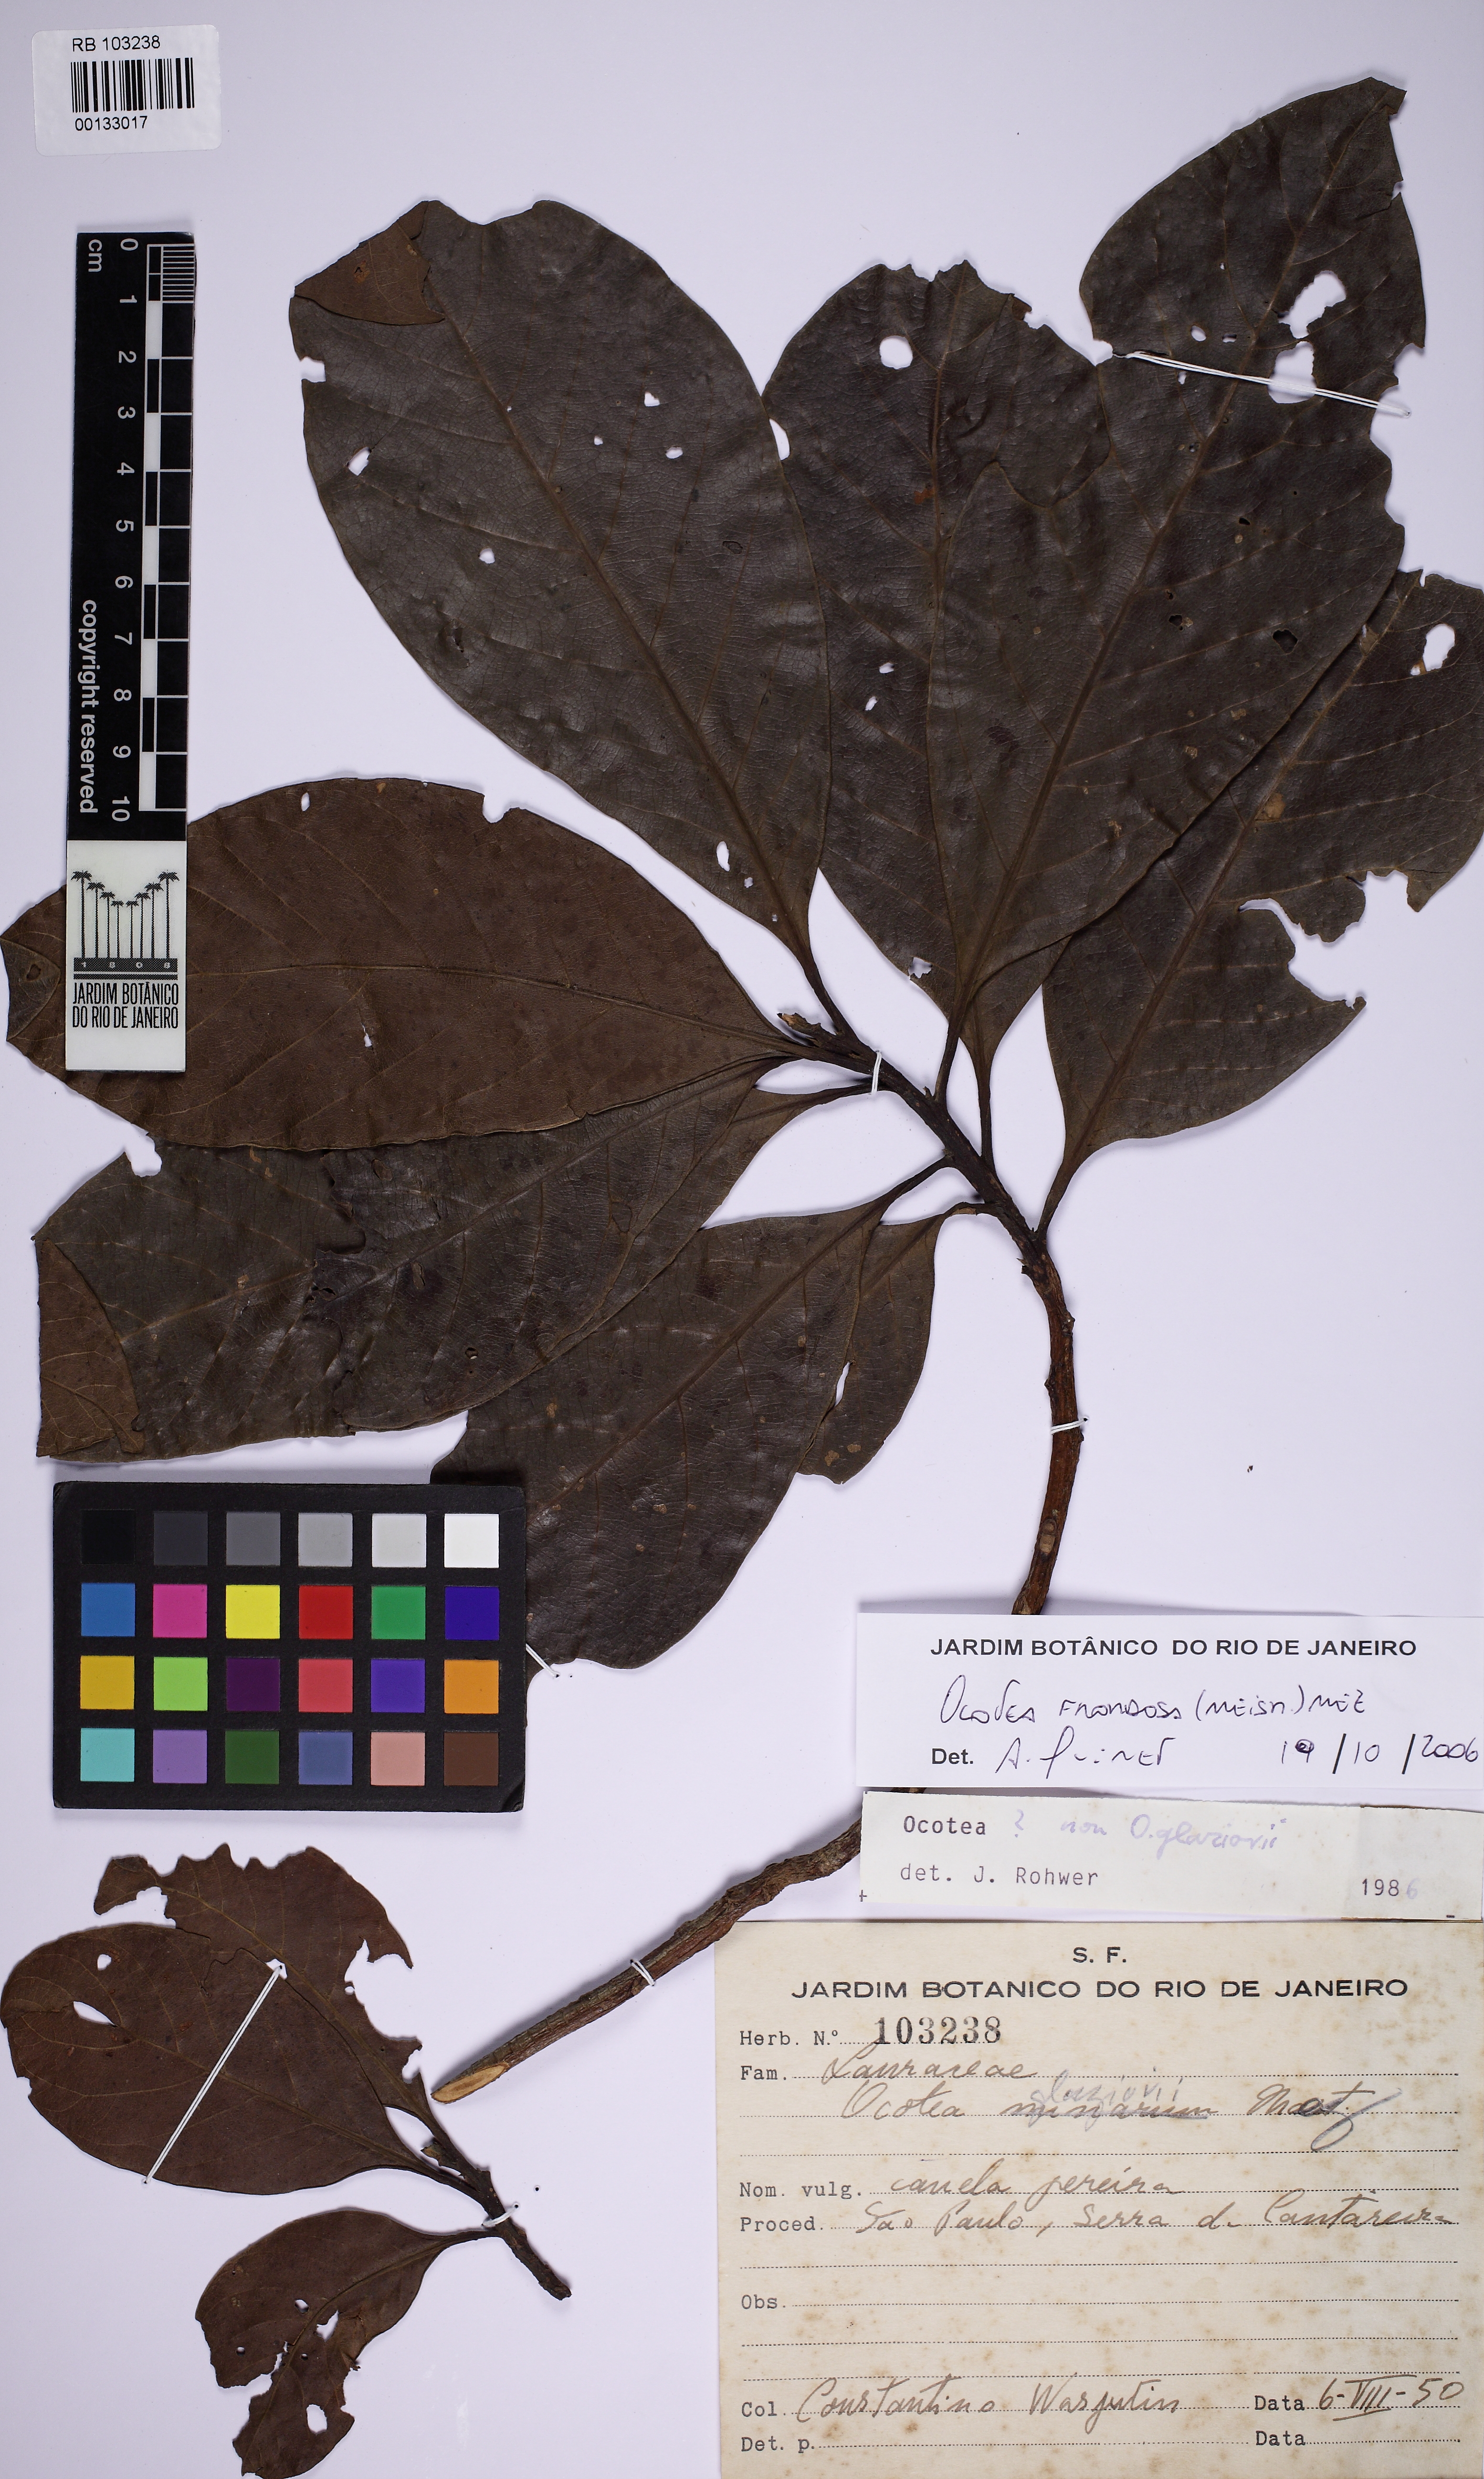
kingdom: Plantae
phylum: Tracheophyta
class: Magnoliopsida
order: Laurales
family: Lauraceae
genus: Ocotea
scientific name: Ocotea frondosa
